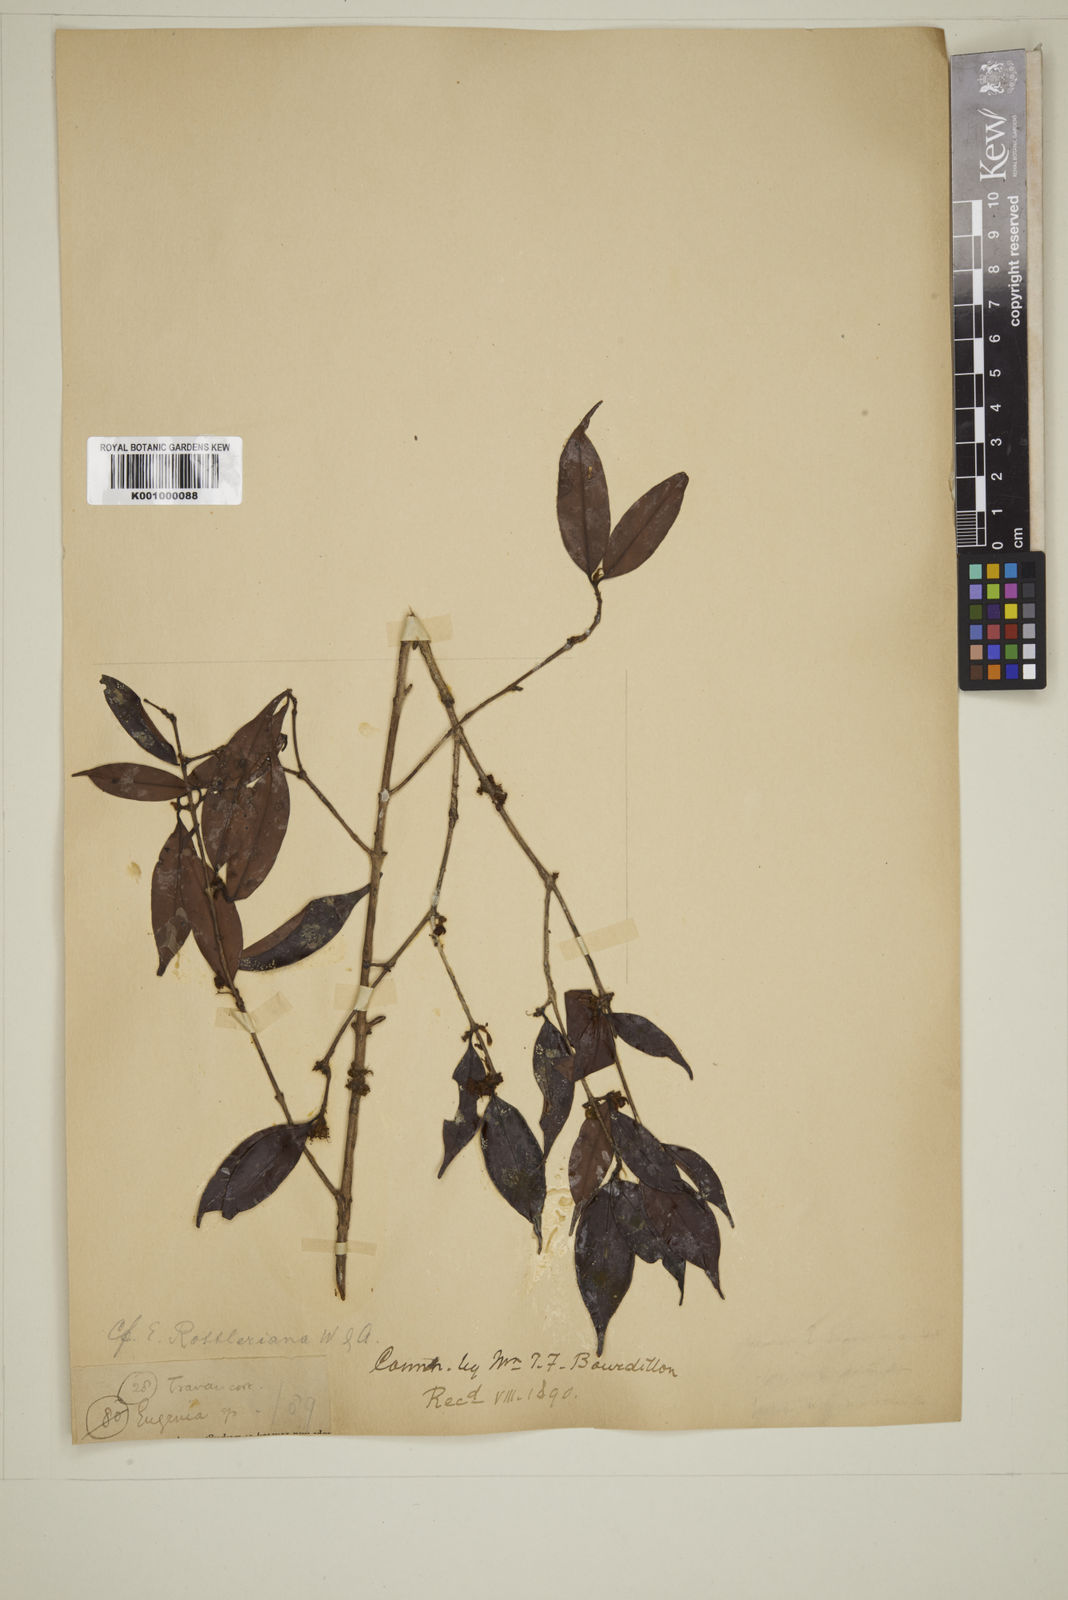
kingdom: Plantae
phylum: Tracheophyta
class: Magnoliopsida
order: Myrtales
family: Myrtaceae
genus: Eugenia
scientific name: Eugenia thwaitesii
